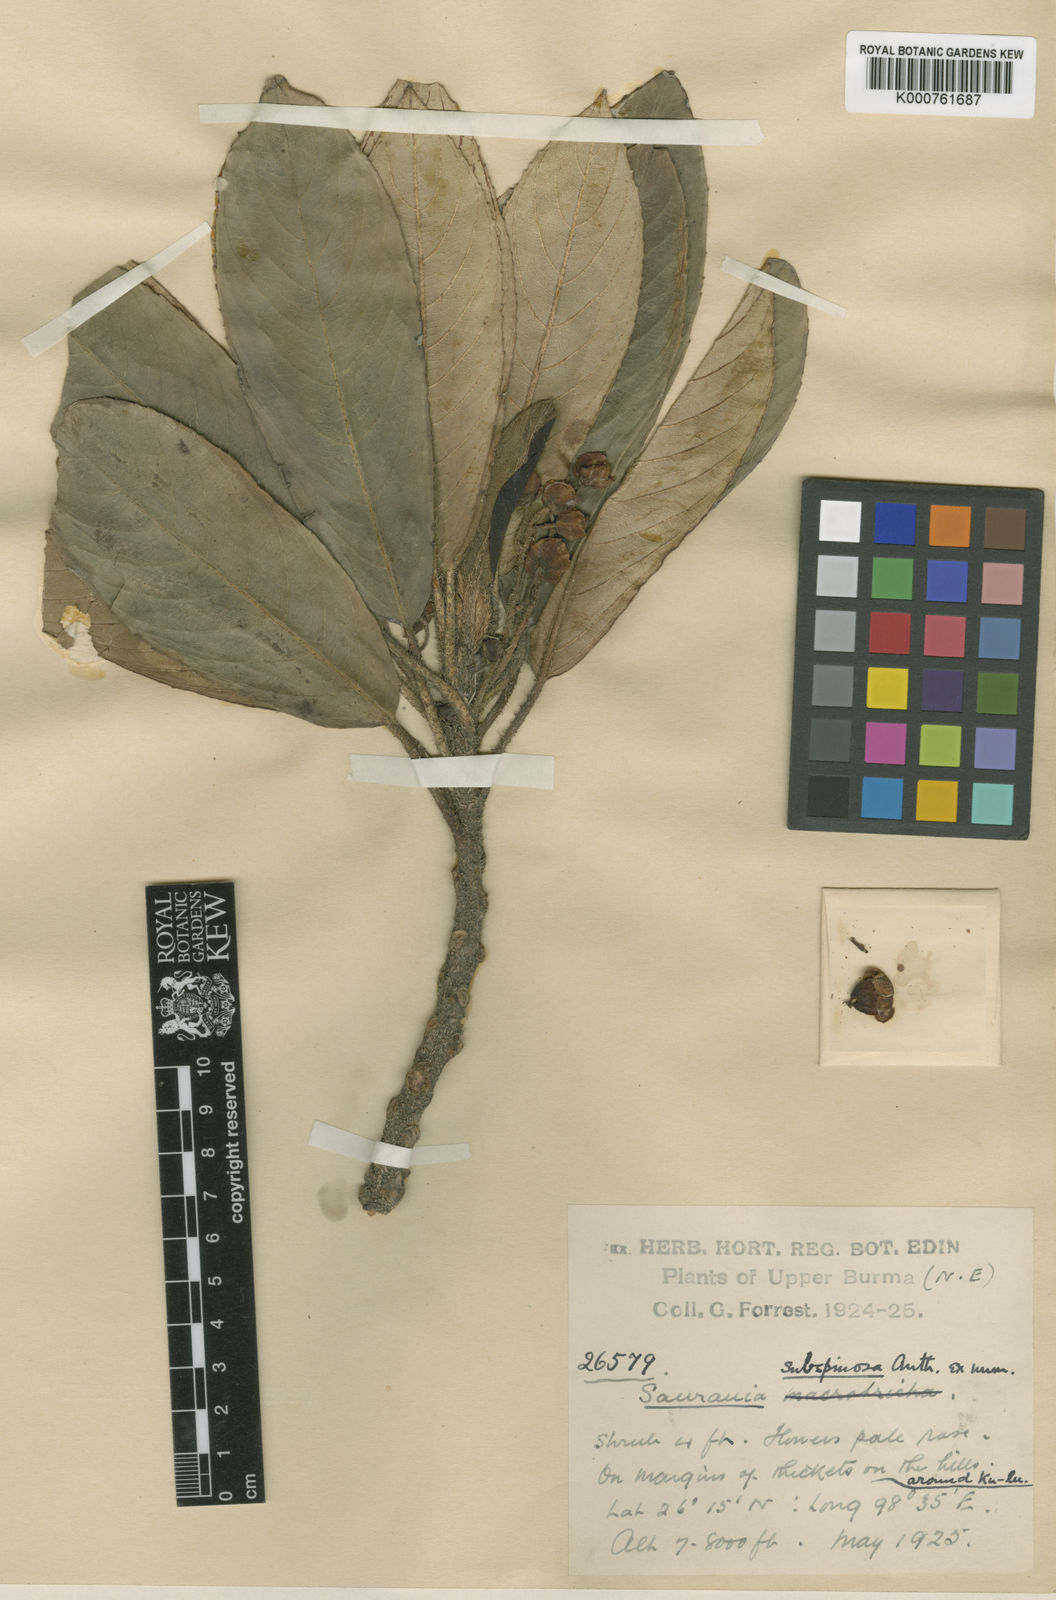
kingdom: Plantae
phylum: Tracheophyta
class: Magnoliopsida
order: Ericales
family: Actinidiaceae
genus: Saurauia
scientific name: Saurauia subspinosa
